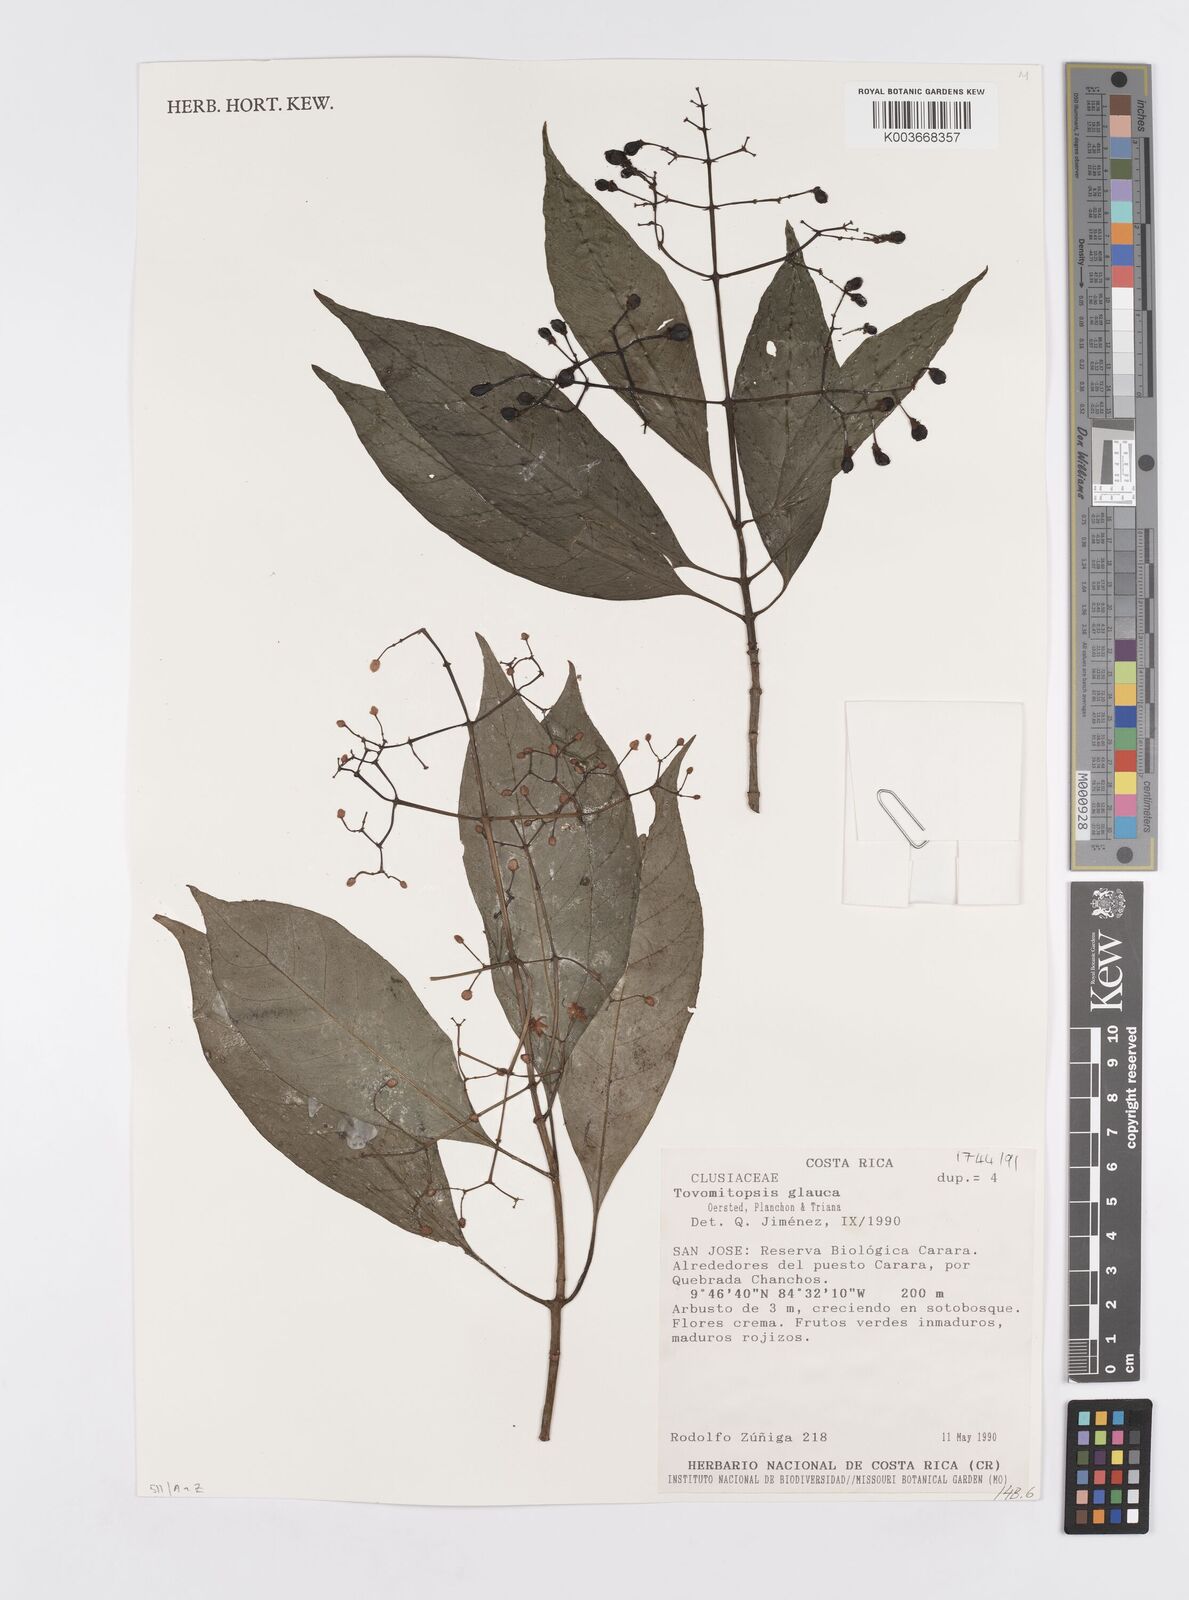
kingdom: Plantae
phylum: Tracheophyta
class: Magnoliopsida
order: Malpighiales
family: Clusiaceae
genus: Chrysochlamys
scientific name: Chrysochlamys glauca
